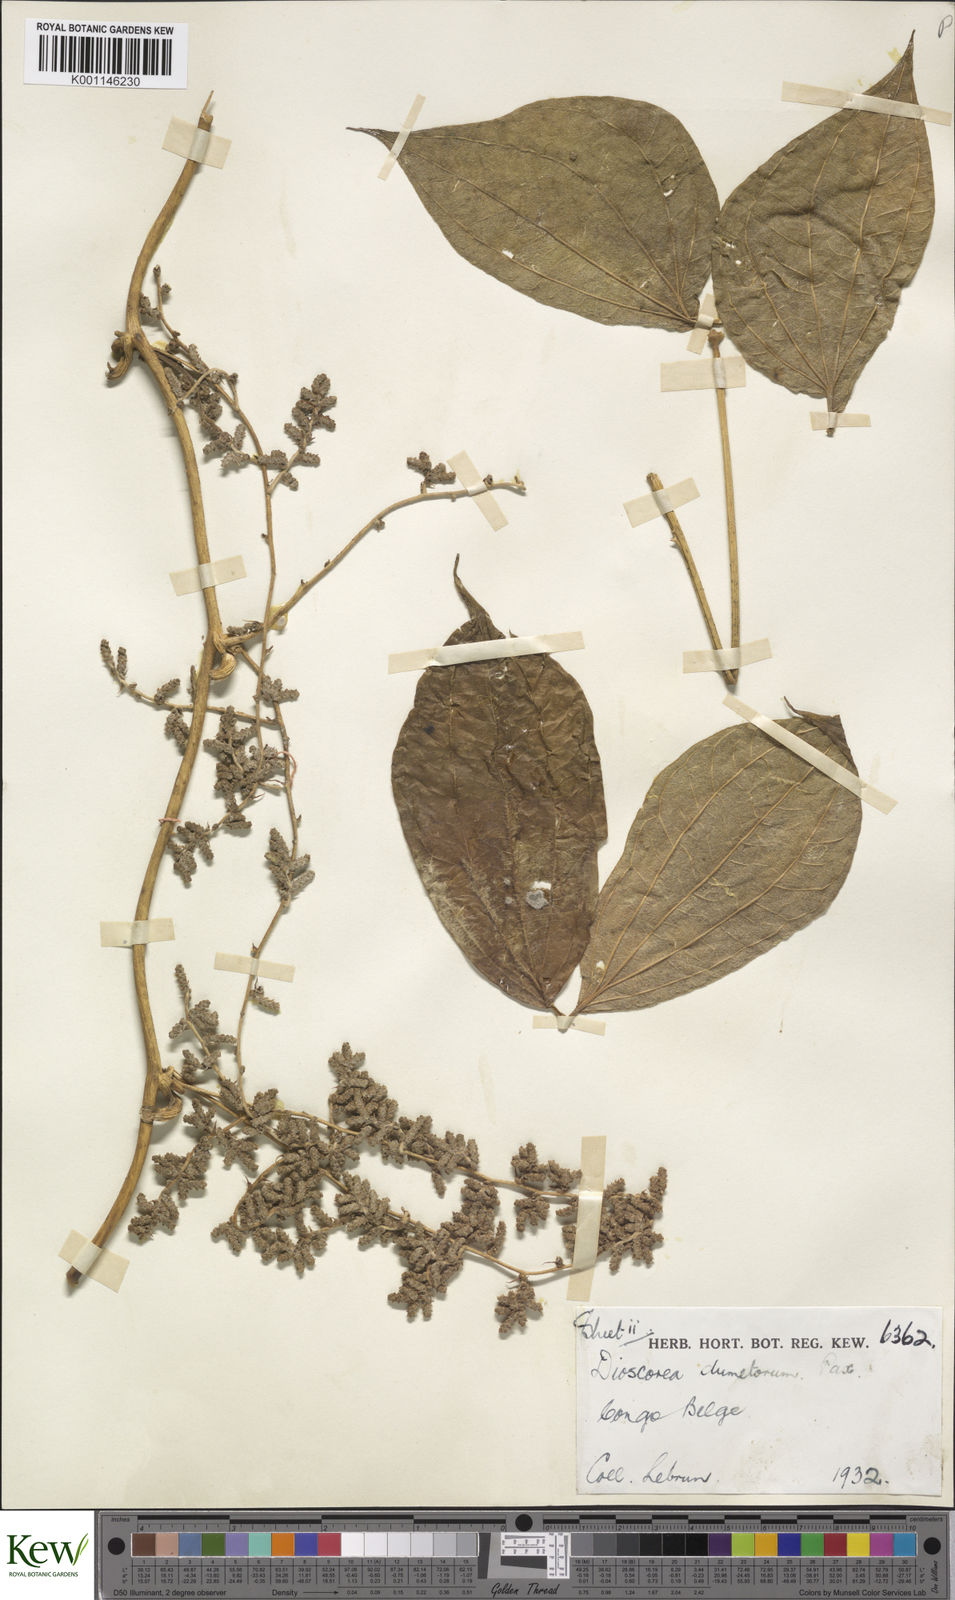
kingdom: Plantae
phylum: Tracheophyta
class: Liliopsida
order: Dioscoreales
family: Dioscoreaceae
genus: Dioscorea
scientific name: Dioscorea dumetorum
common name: African bitter yam
